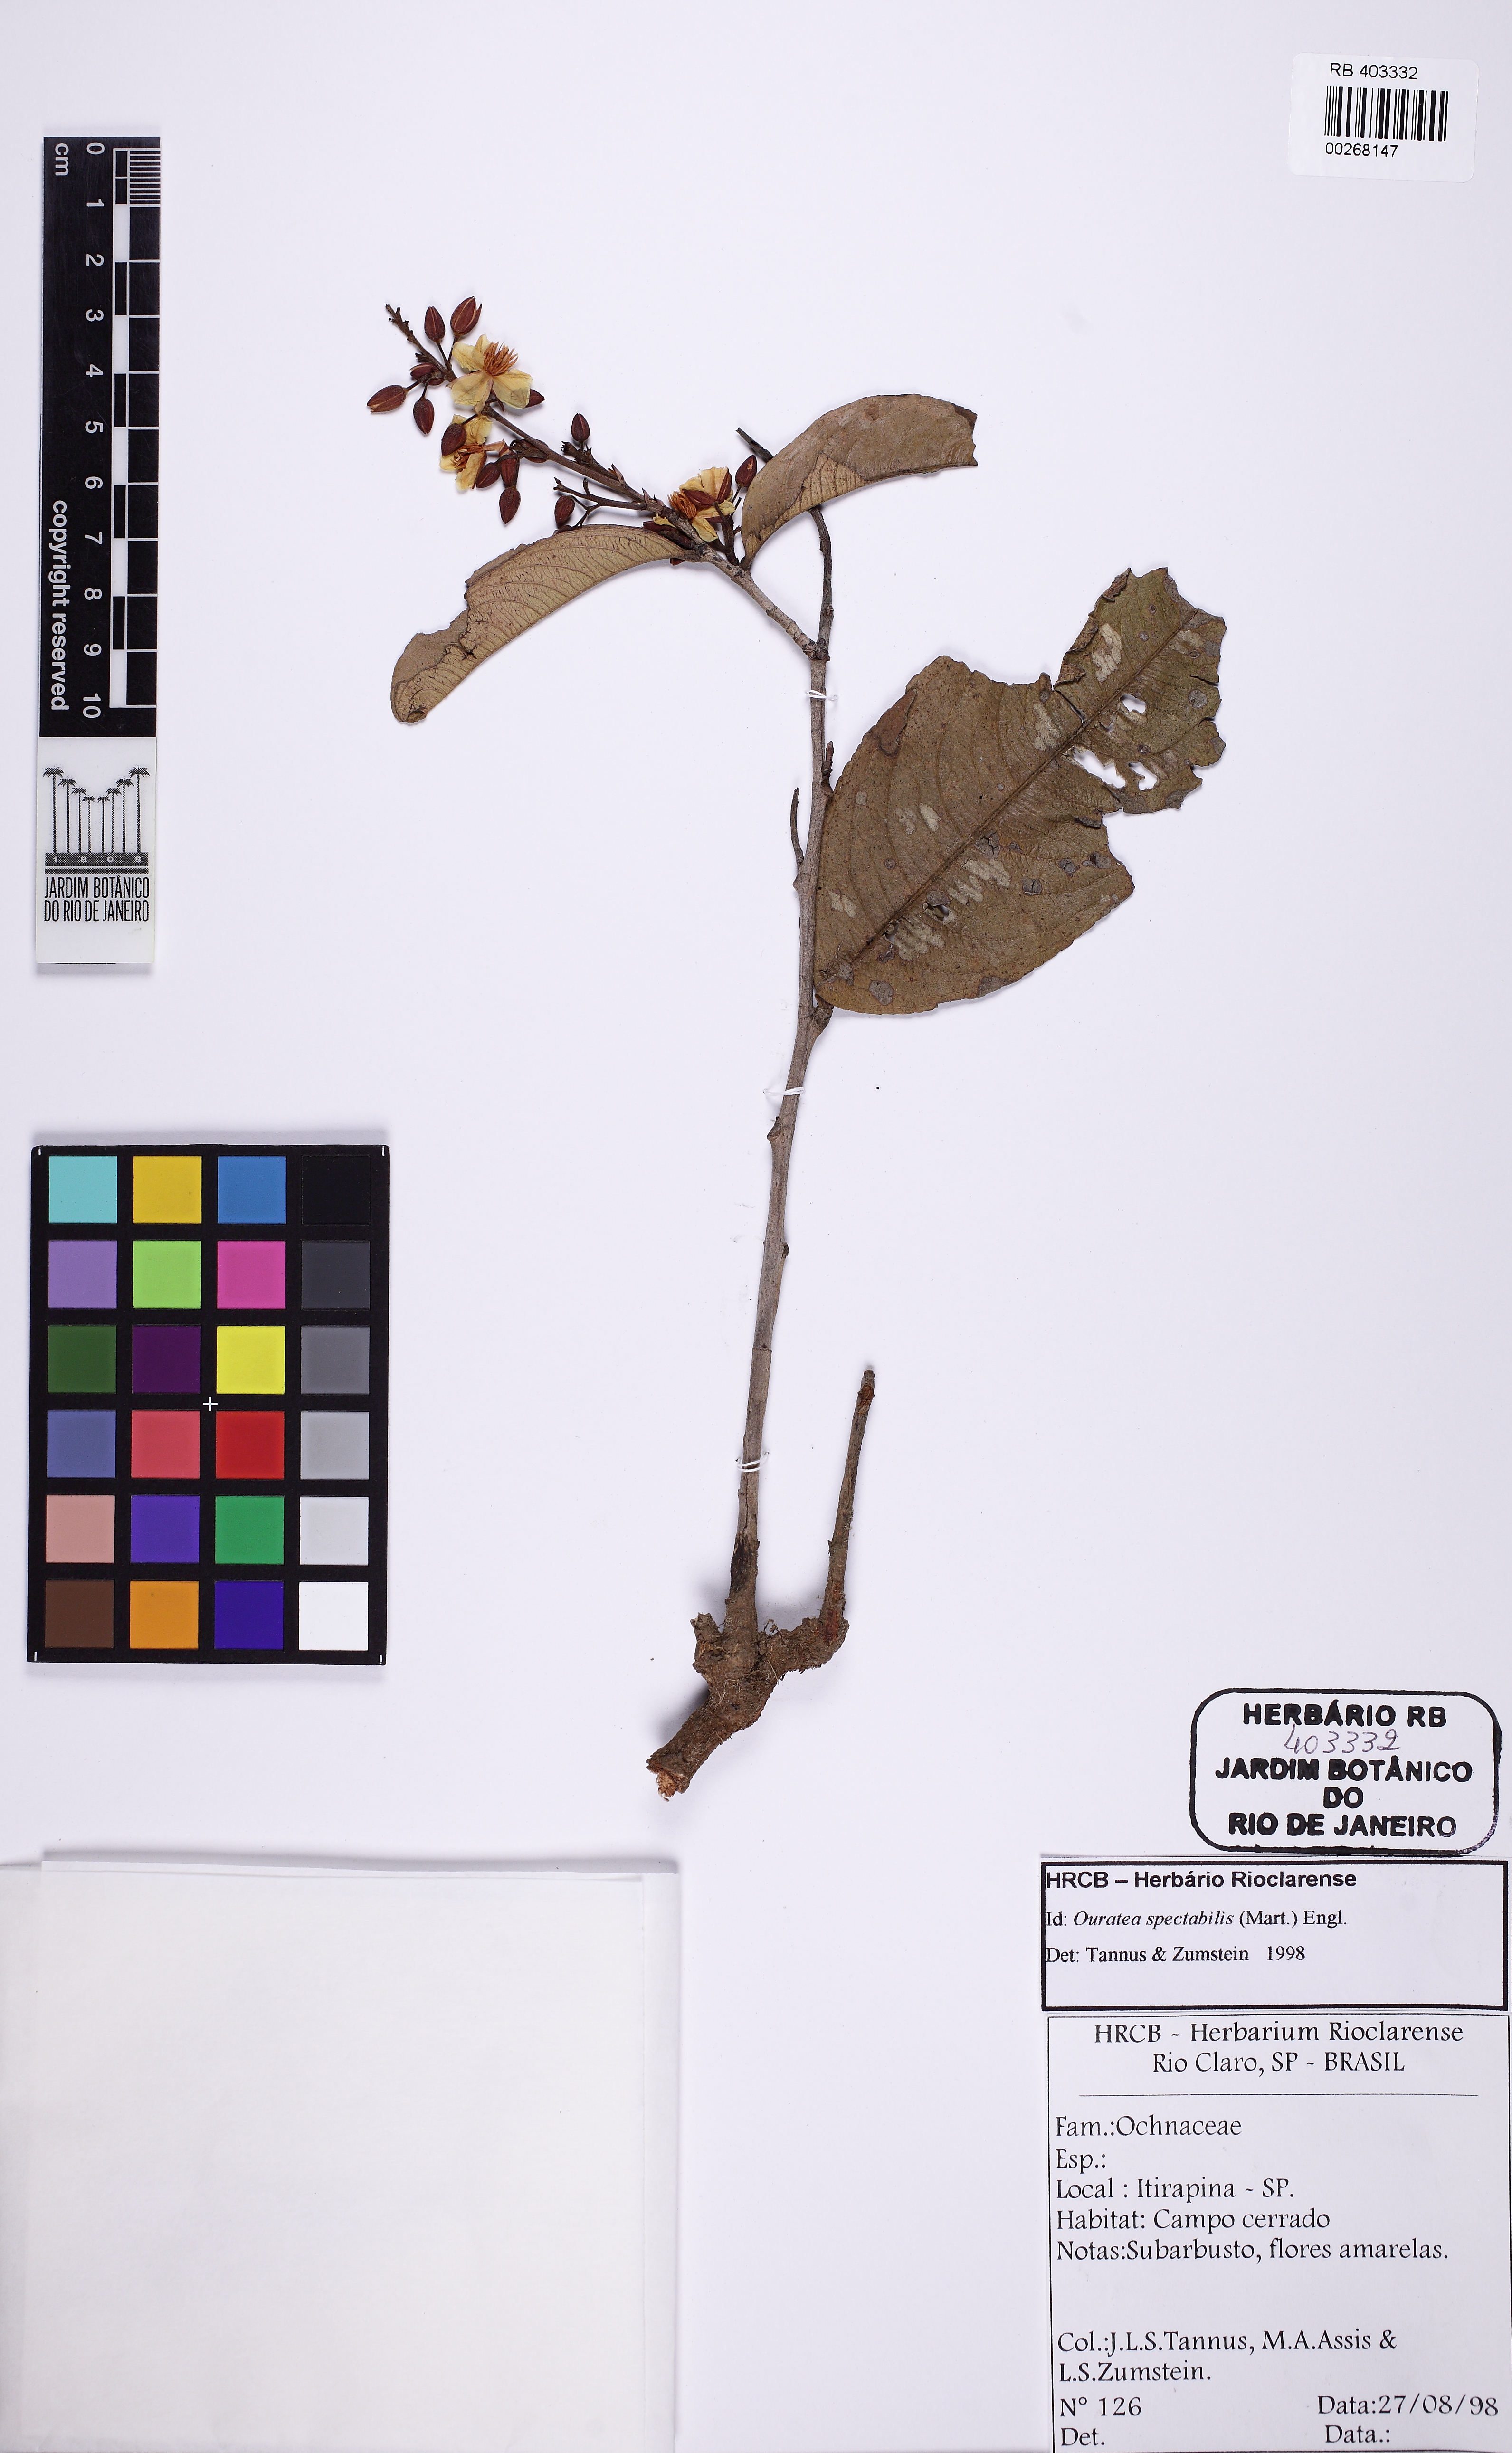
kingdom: Plantae
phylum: Tracheophyta
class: Magnoliopsida
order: Malpighiales
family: Ochnaceae
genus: Ouratea
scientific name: Ouratea spectabilis
